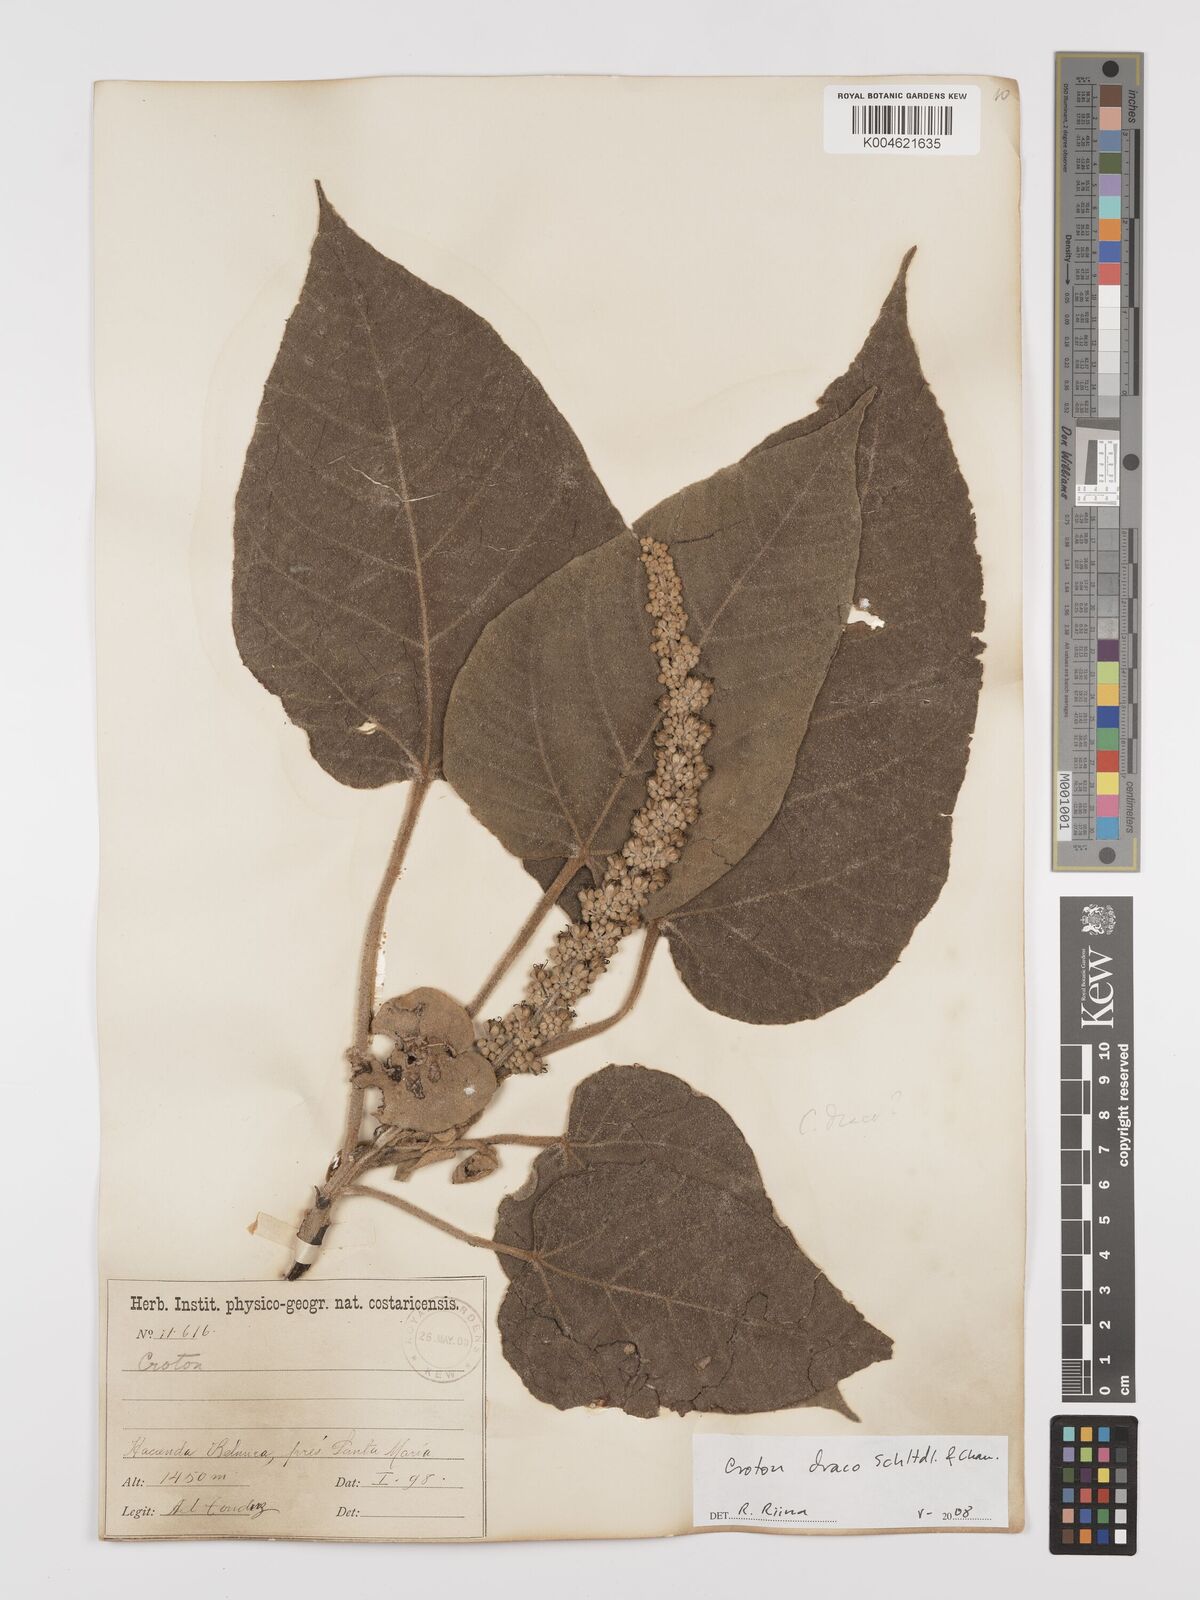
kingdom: Plantae
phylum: Tracheophyta
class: Magnoliopsida
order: Malpighiales
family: Euphorbiaceae
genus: Croton
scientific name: Croton draco
